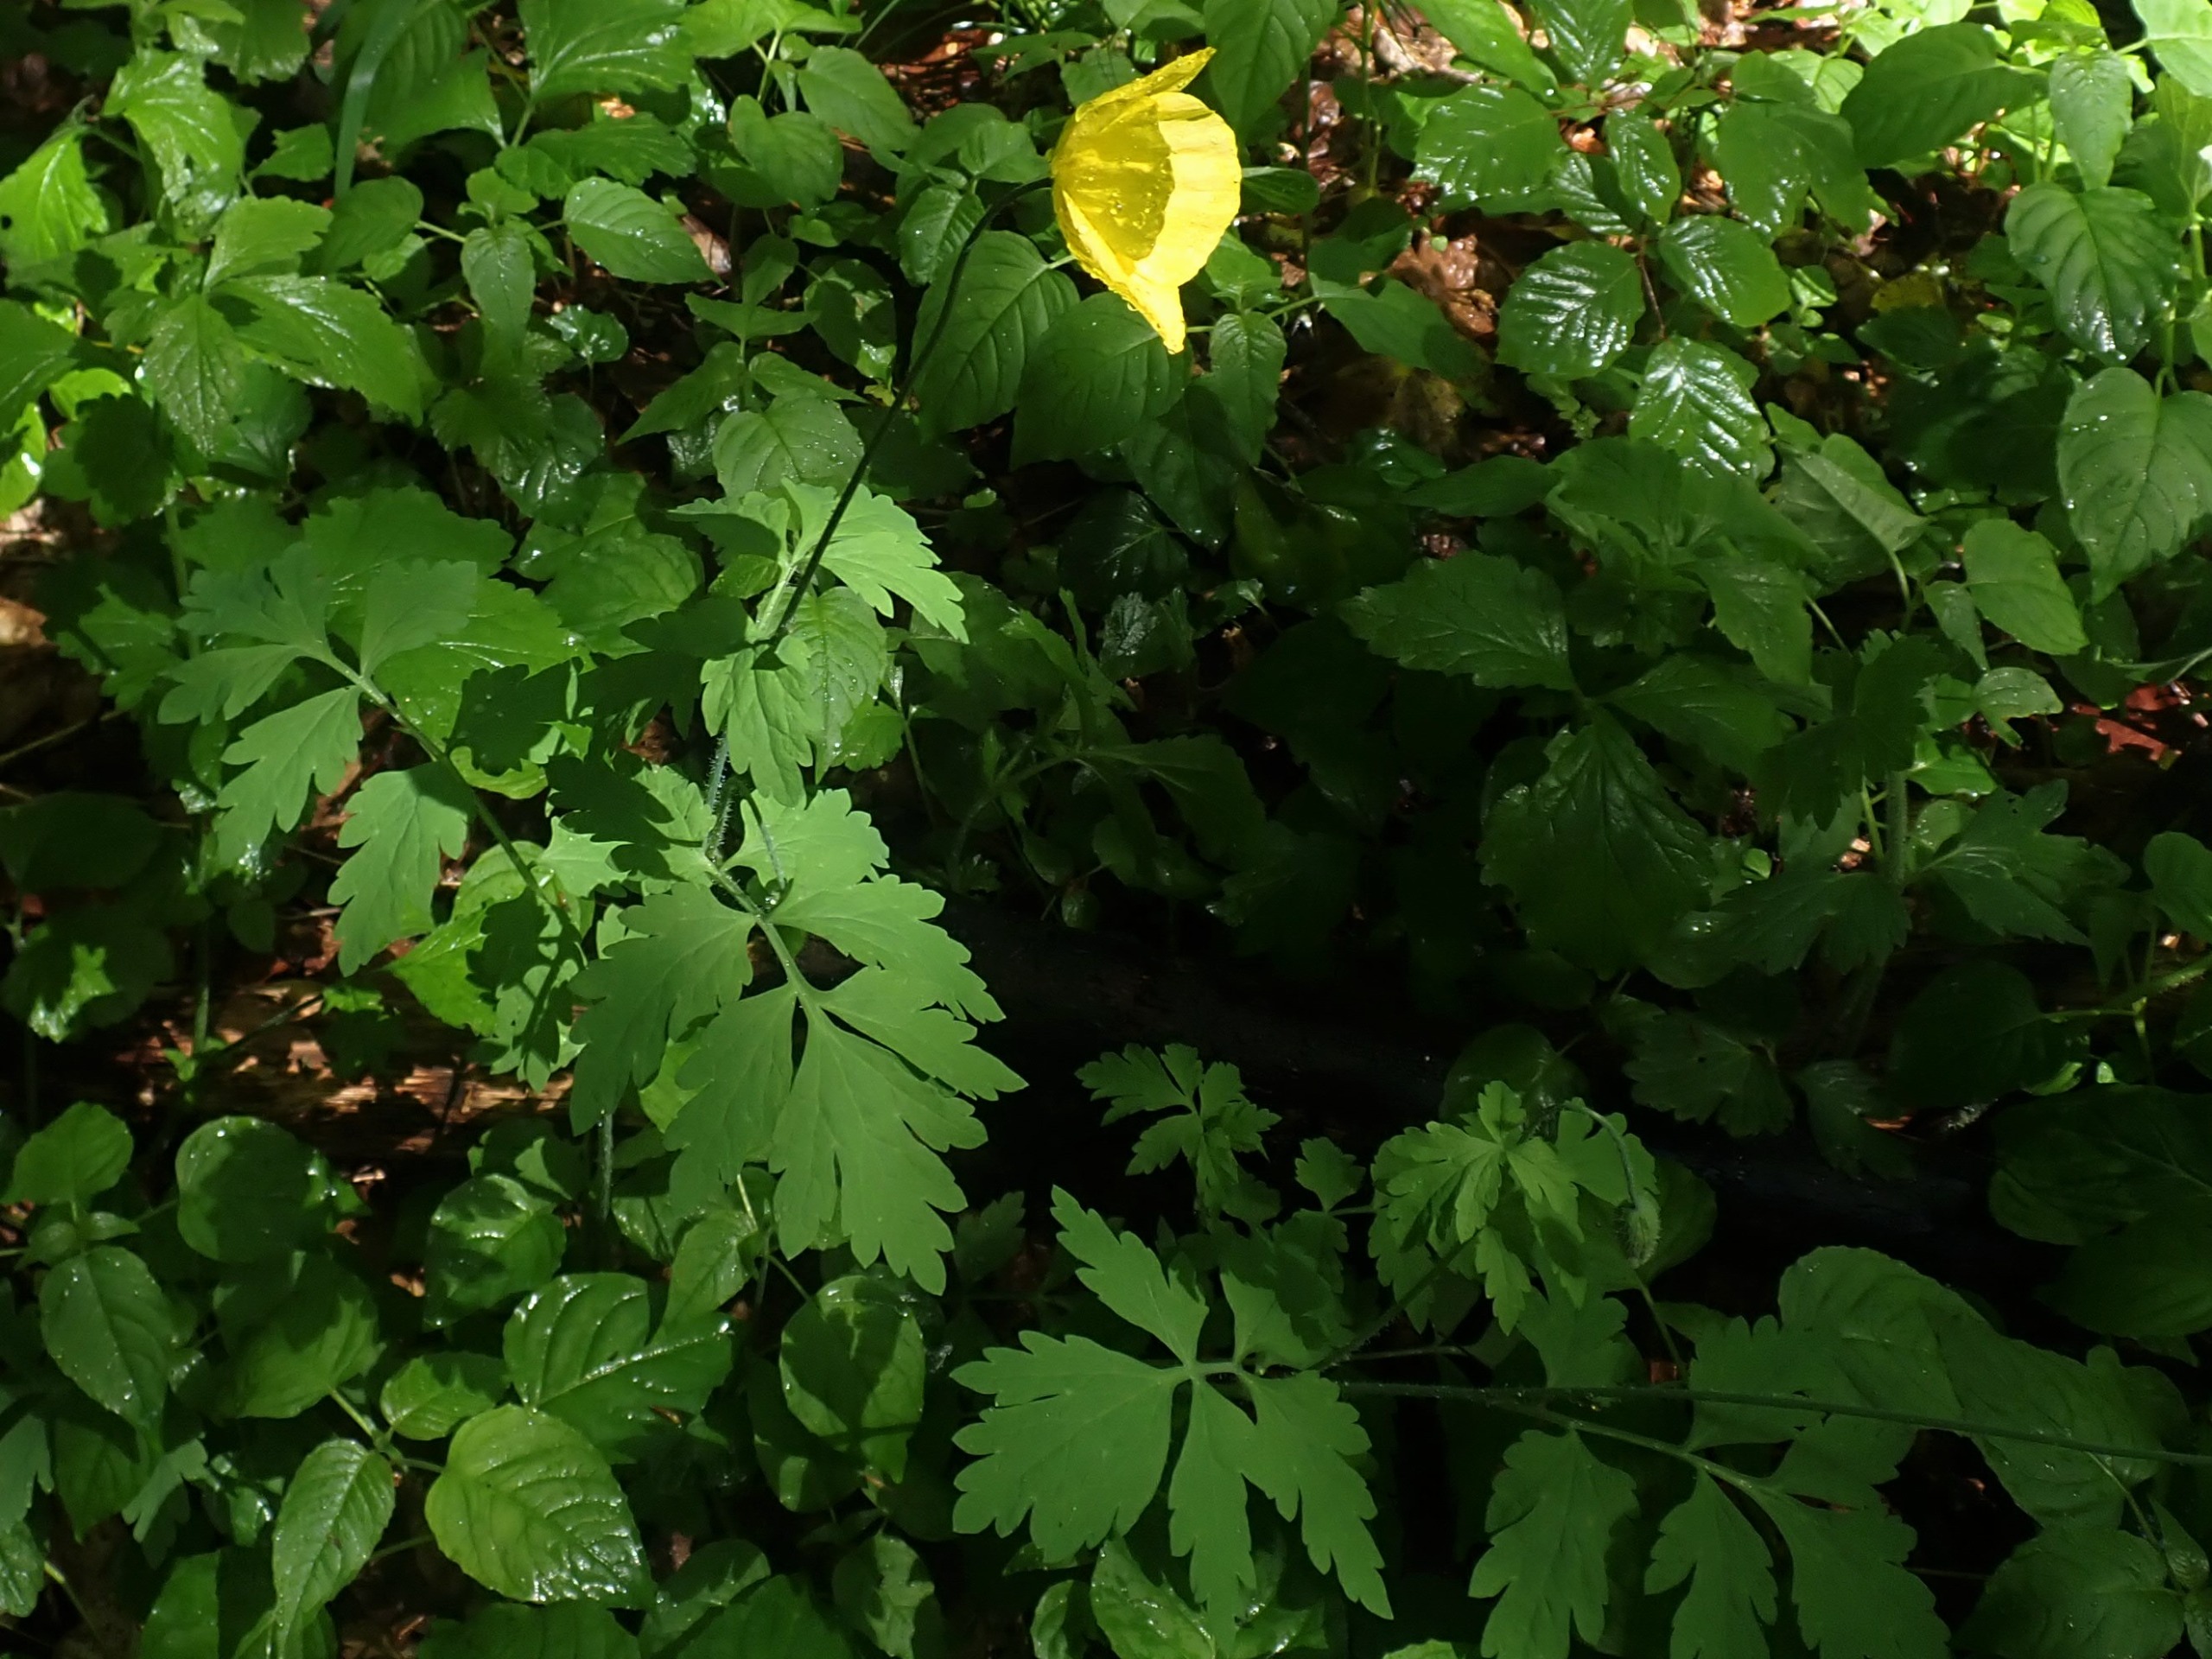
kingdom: Plantae
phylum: Tracheophyta
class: Magnoliopsida
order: Ranunculales
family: Papaveraceae
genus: Papaver
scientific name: Papaver cambricum
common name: Skov-valmue
